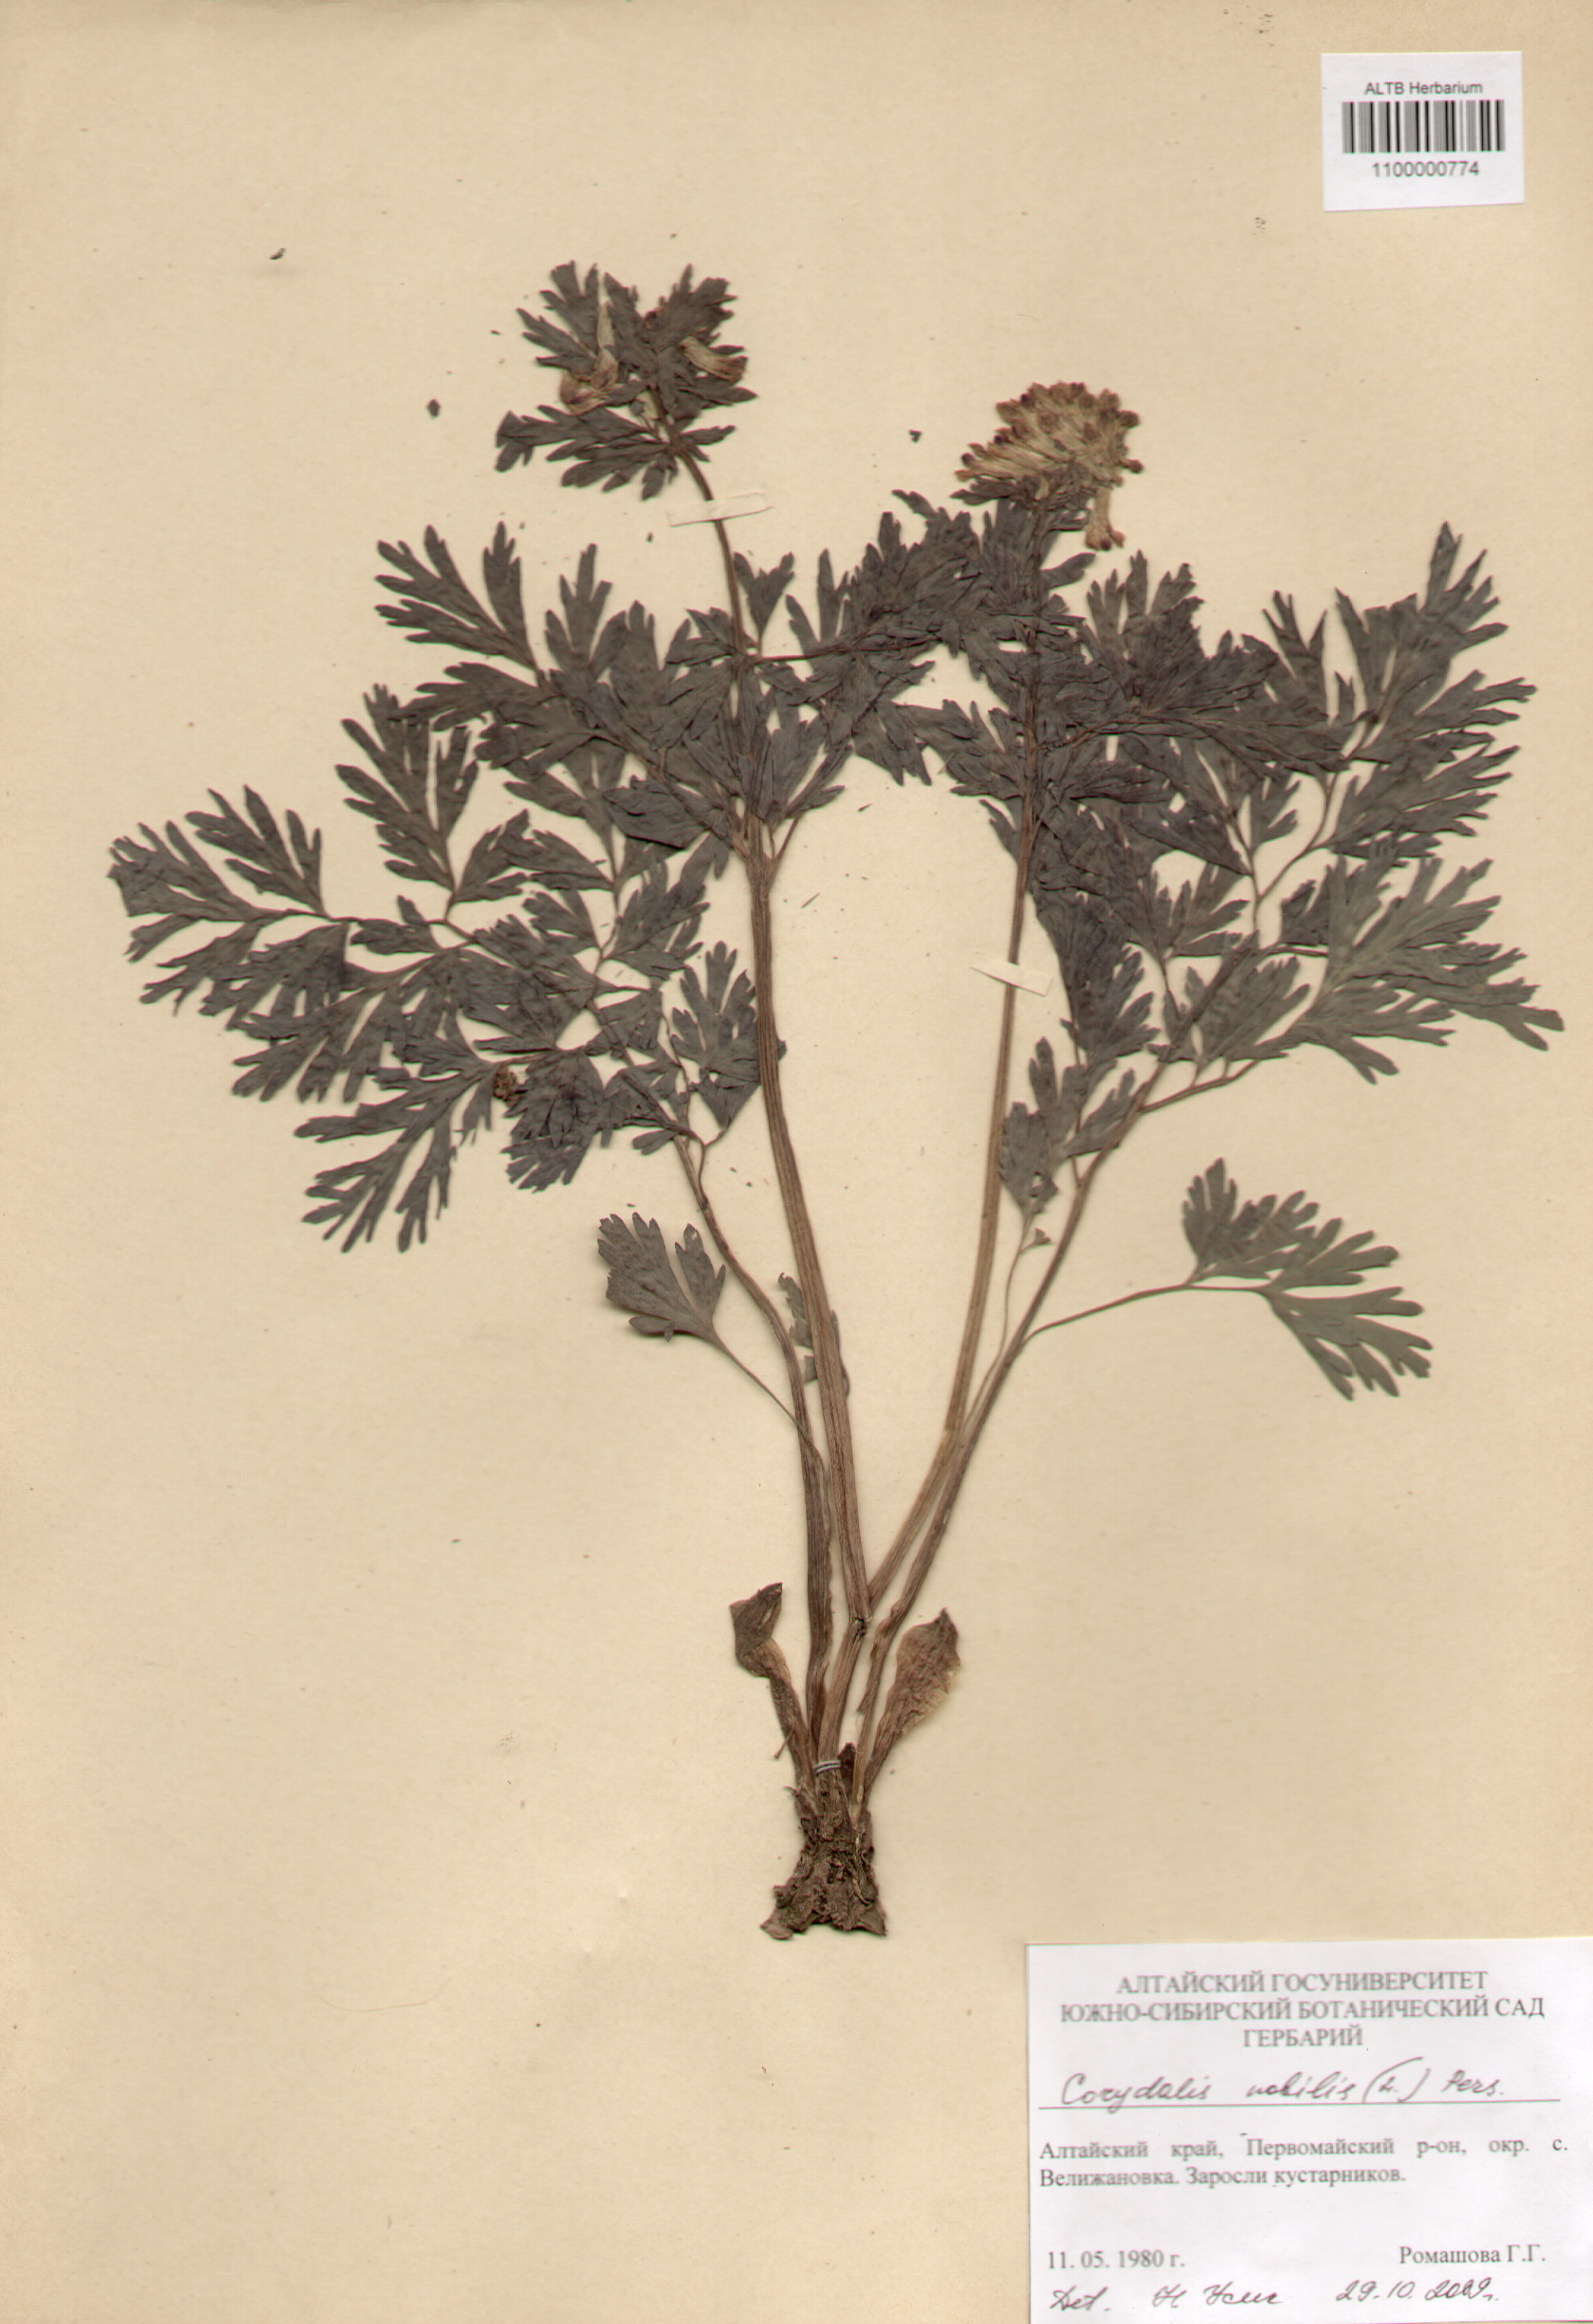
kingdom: Plantae
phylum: Tracheophyta
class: Magnoliopsida
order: Ranunculales
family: Papaveraceae
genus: Corydalis
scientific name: Corydalis nobilis
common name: Siberian corydalis
